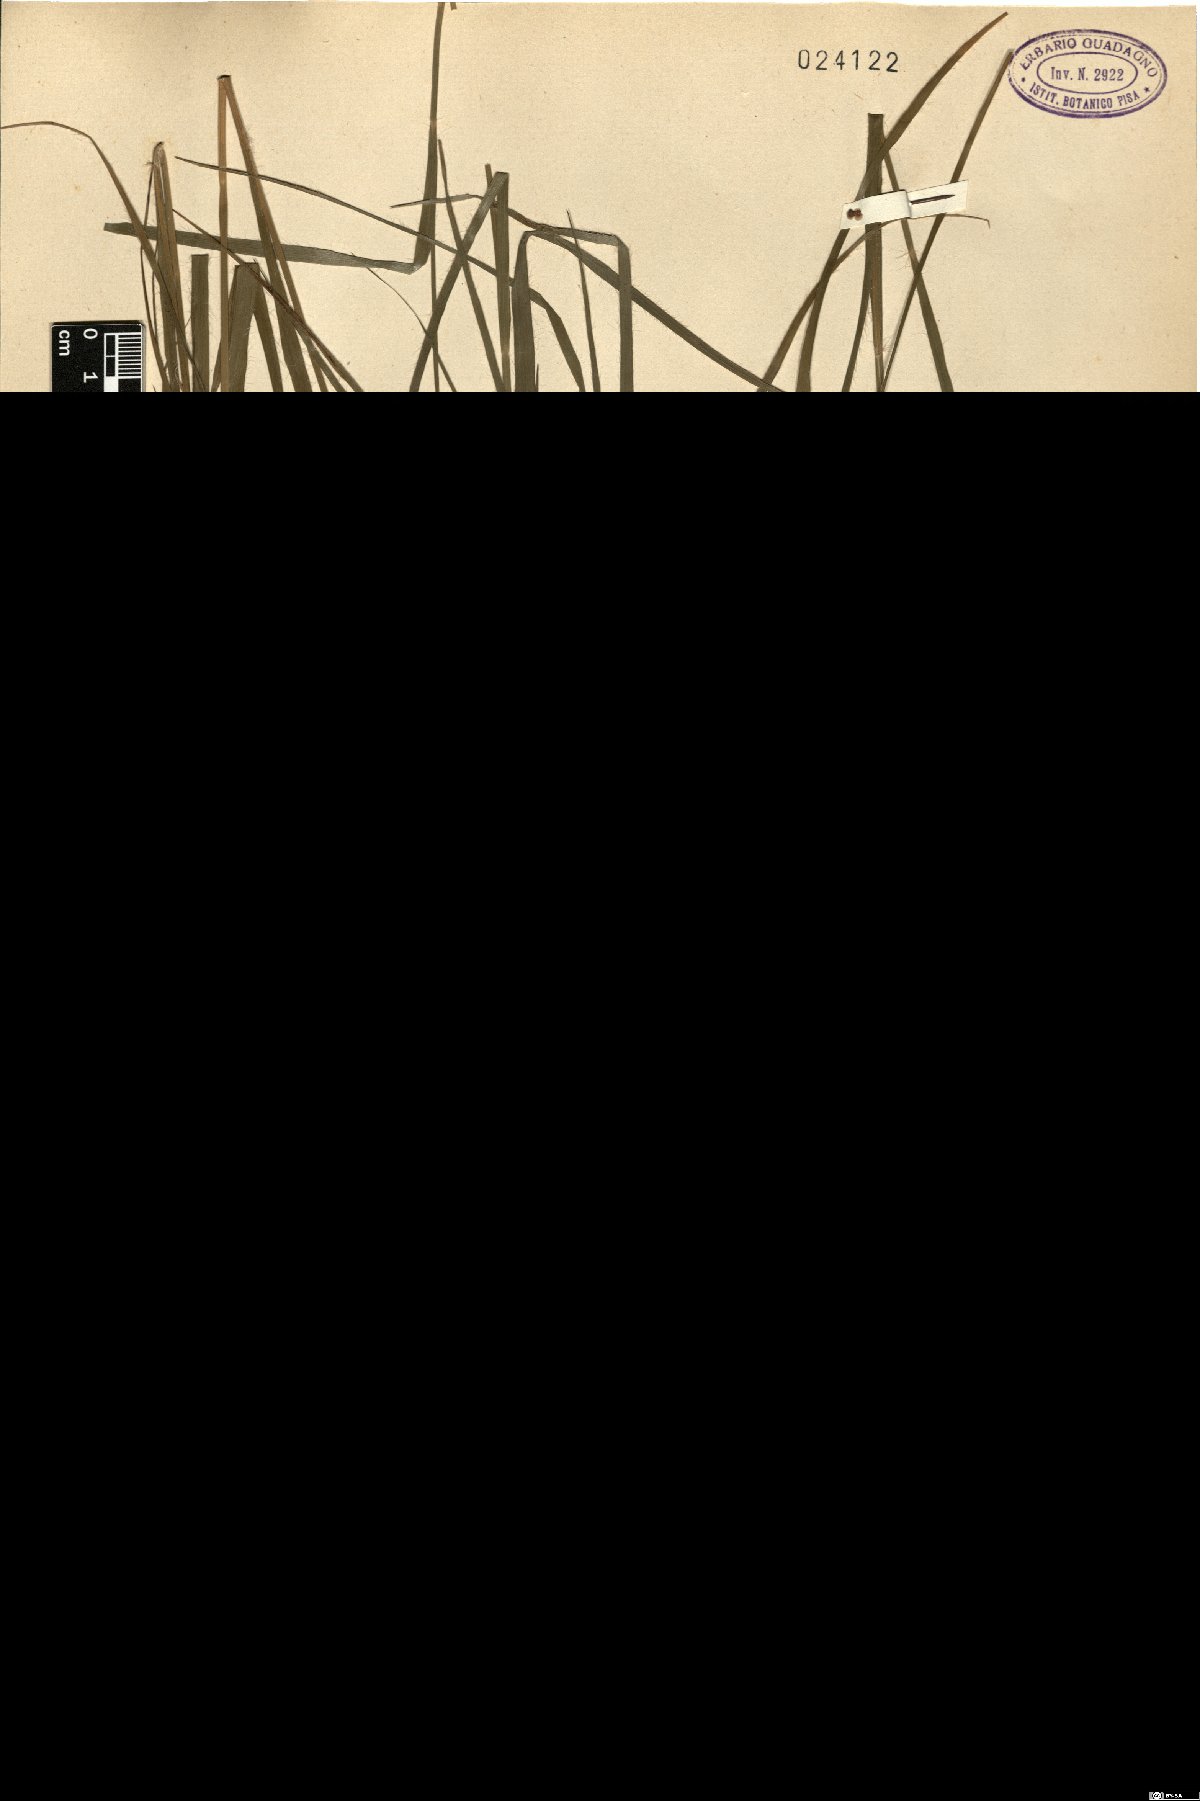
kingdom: Plantae
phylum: Tracheophyta
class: Liliopsida
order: Poales
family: Juncaceae
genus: Luzula
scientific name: Luzula luzuloides
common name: White wood-rush
